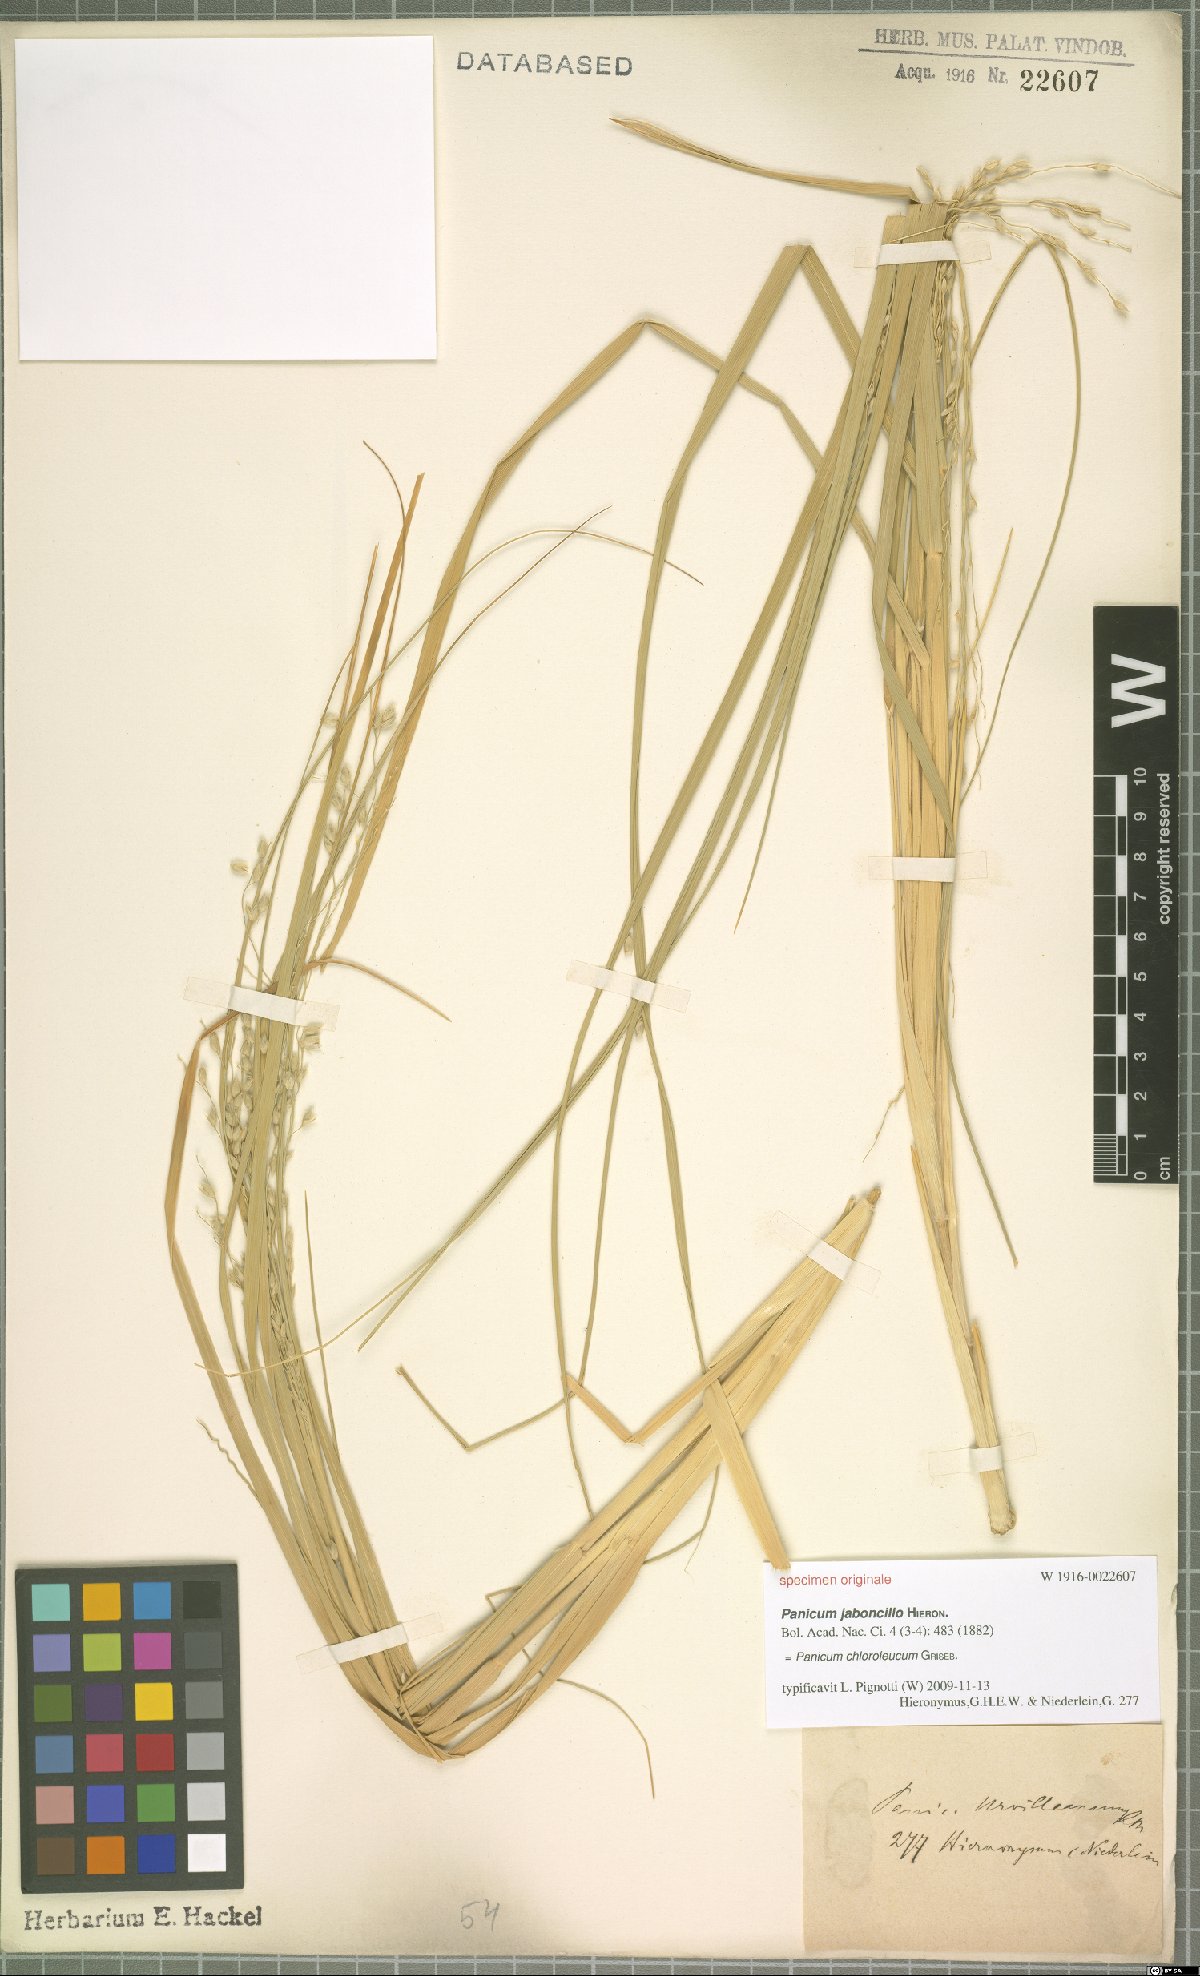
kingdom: Plantae
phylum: Tracheophyta
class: Liliopsida
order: Poales
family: Poaceae
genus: Panicum
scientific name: Panicum chloroleucum
